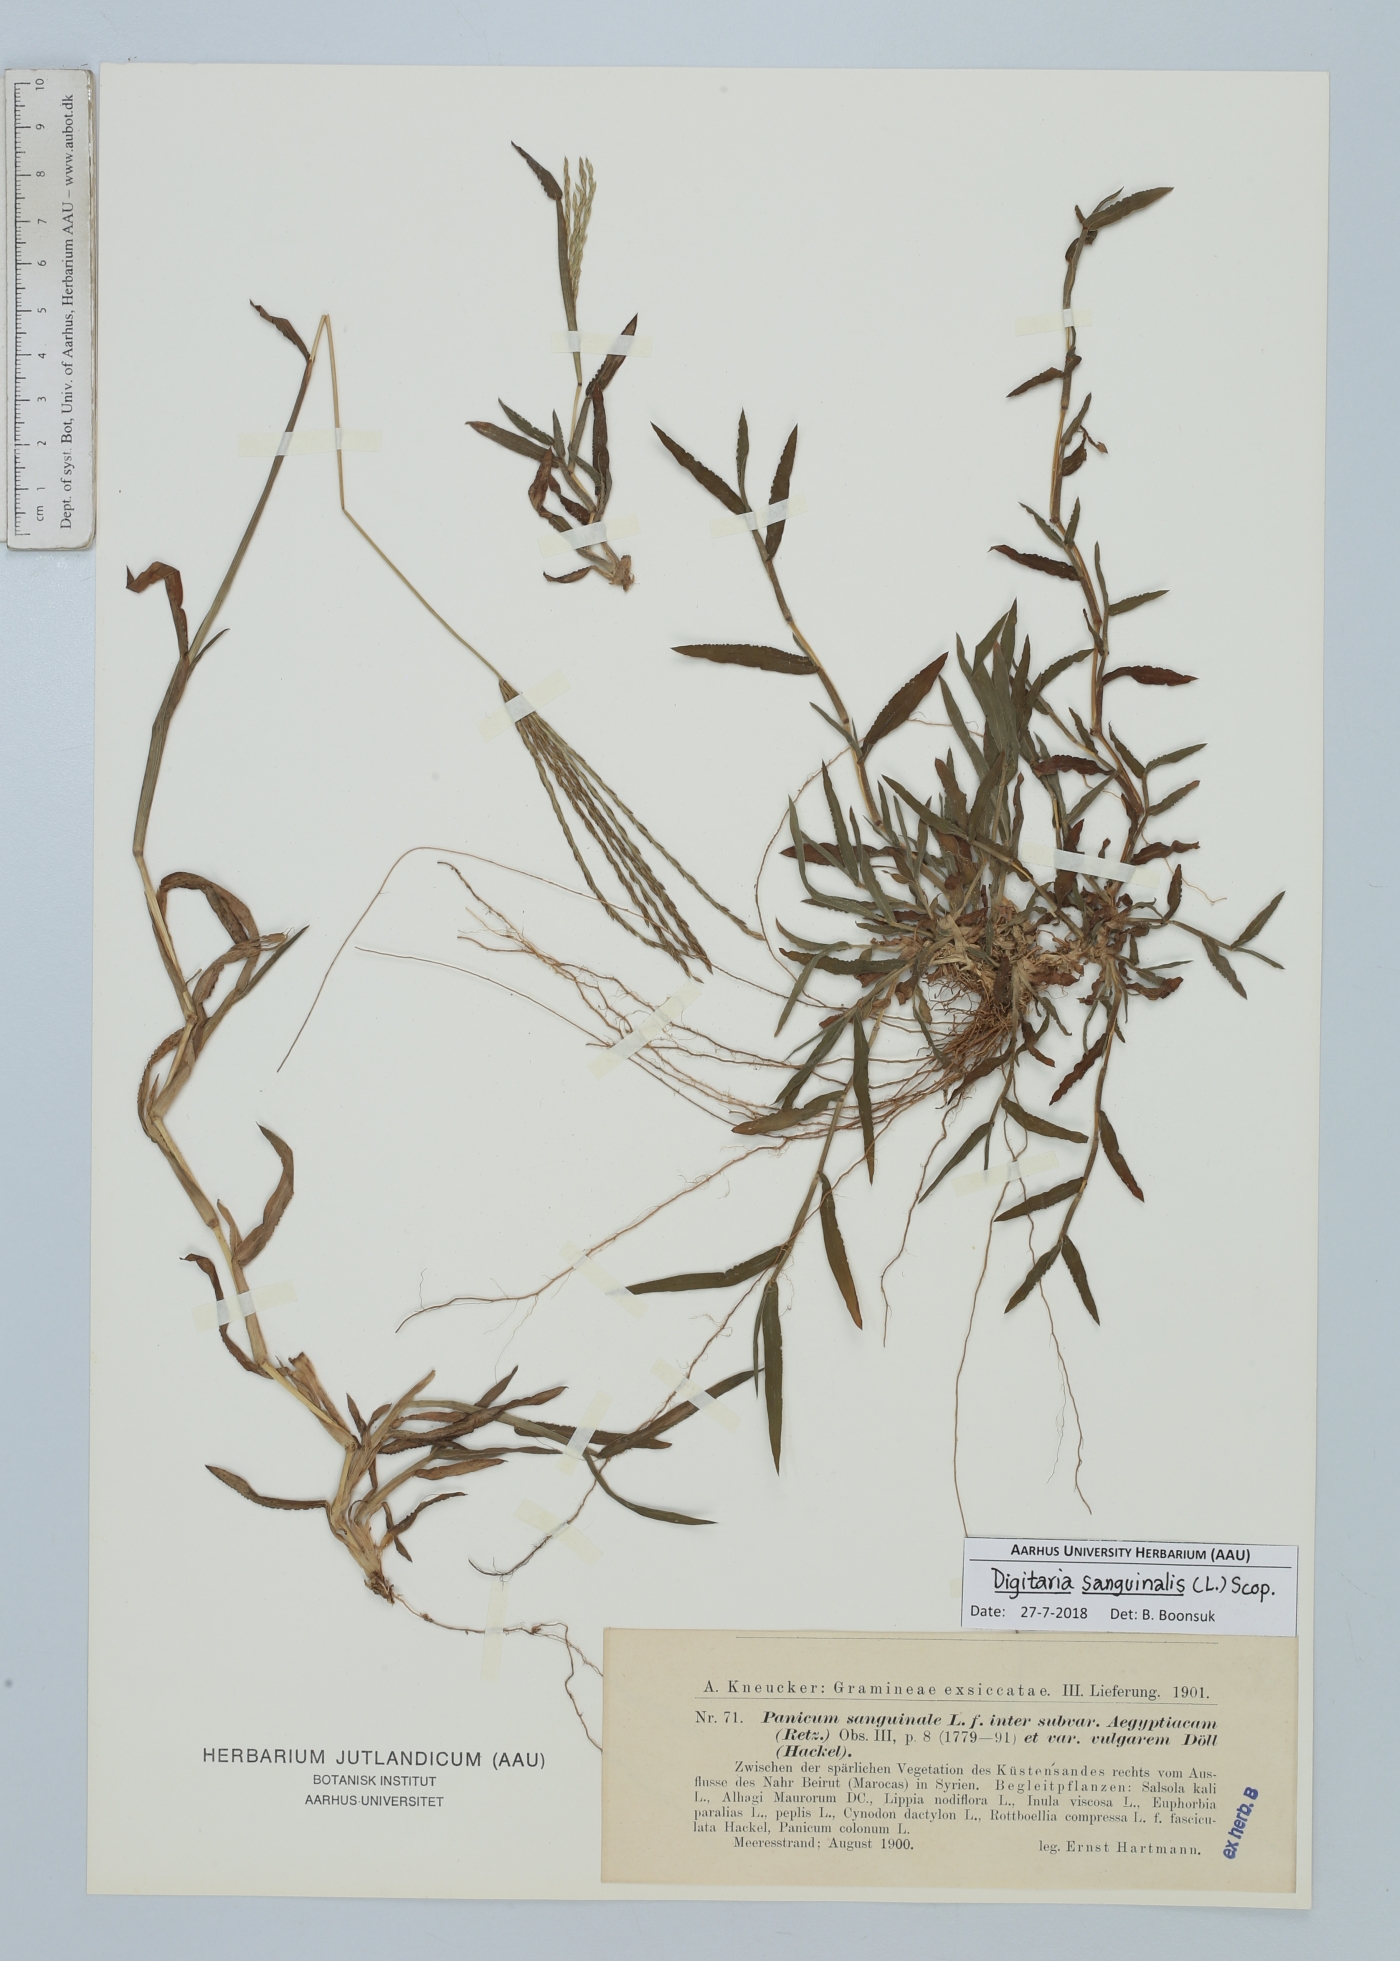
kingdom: Plantae
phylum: Tracheophyta
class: Liliopsida
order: Poales
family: Poaceae
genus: Digitaria
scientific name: Digitaria sanguinalis
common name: Hairy crabgrass
